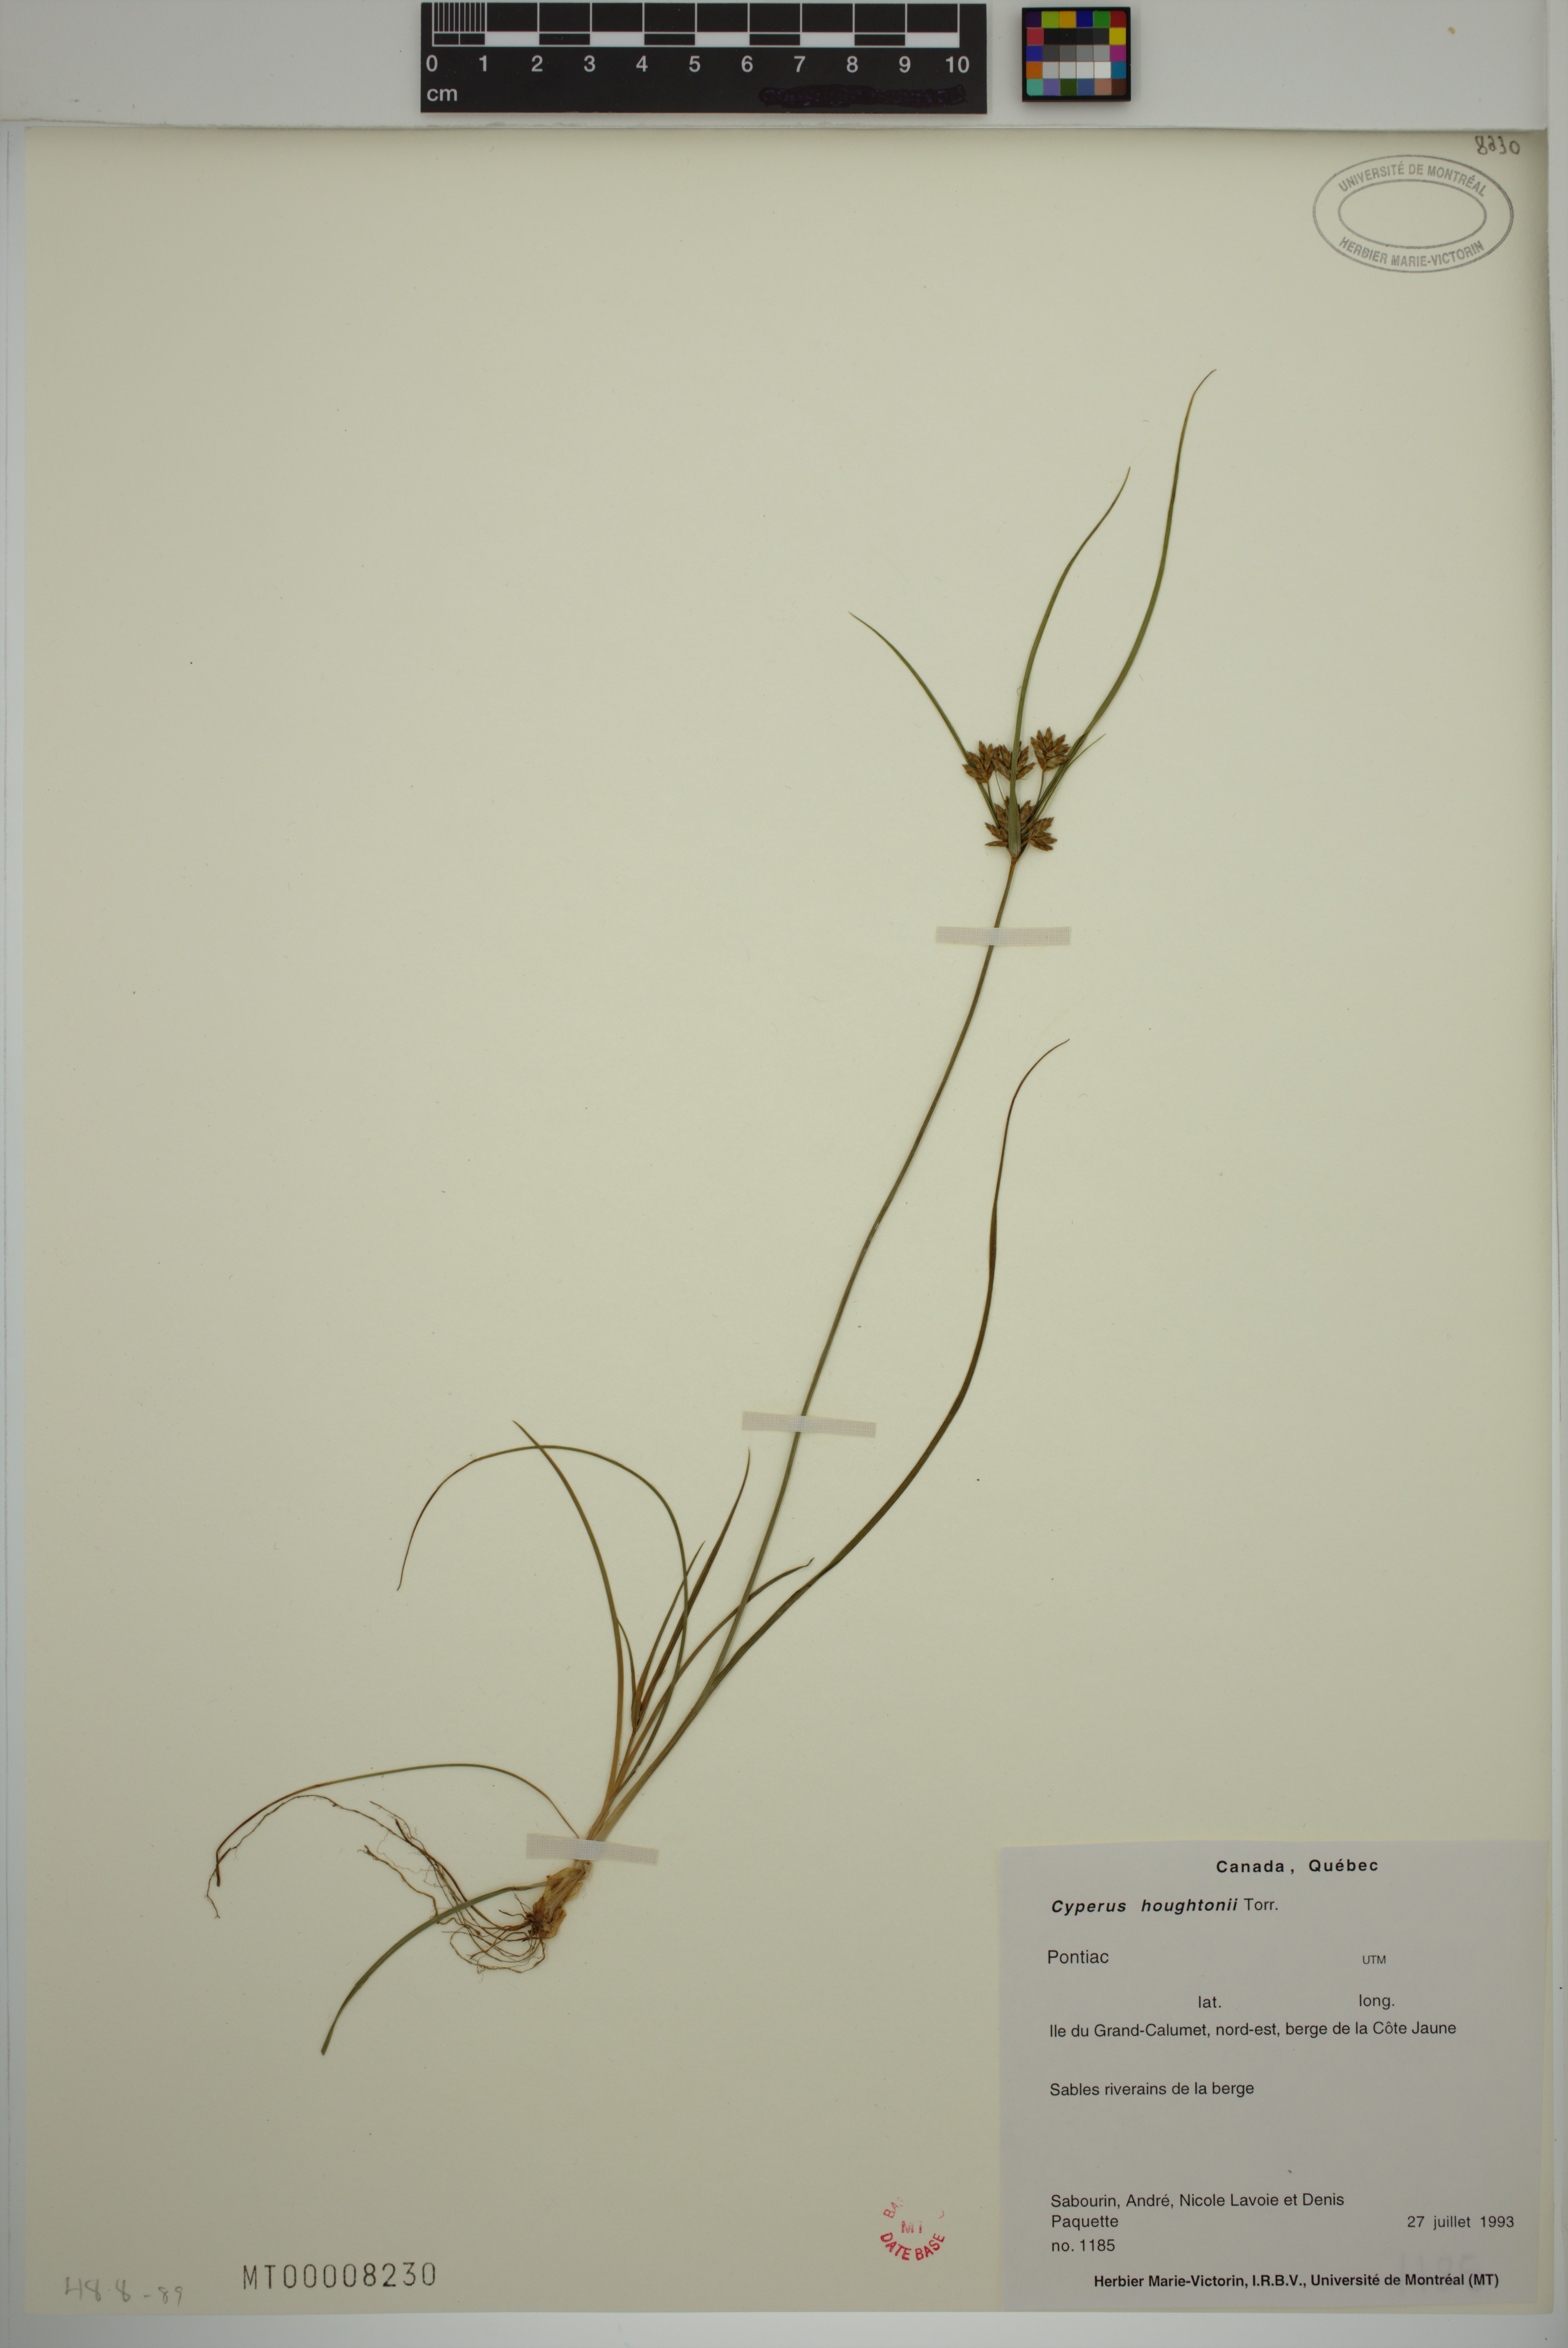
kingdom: Plantae
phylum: Tracheophyta
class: Liliopsida
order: Poales
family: Cyperaceae
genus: Cyperus
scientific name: Cyperus houghtonii
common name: Houghton's cyperus
